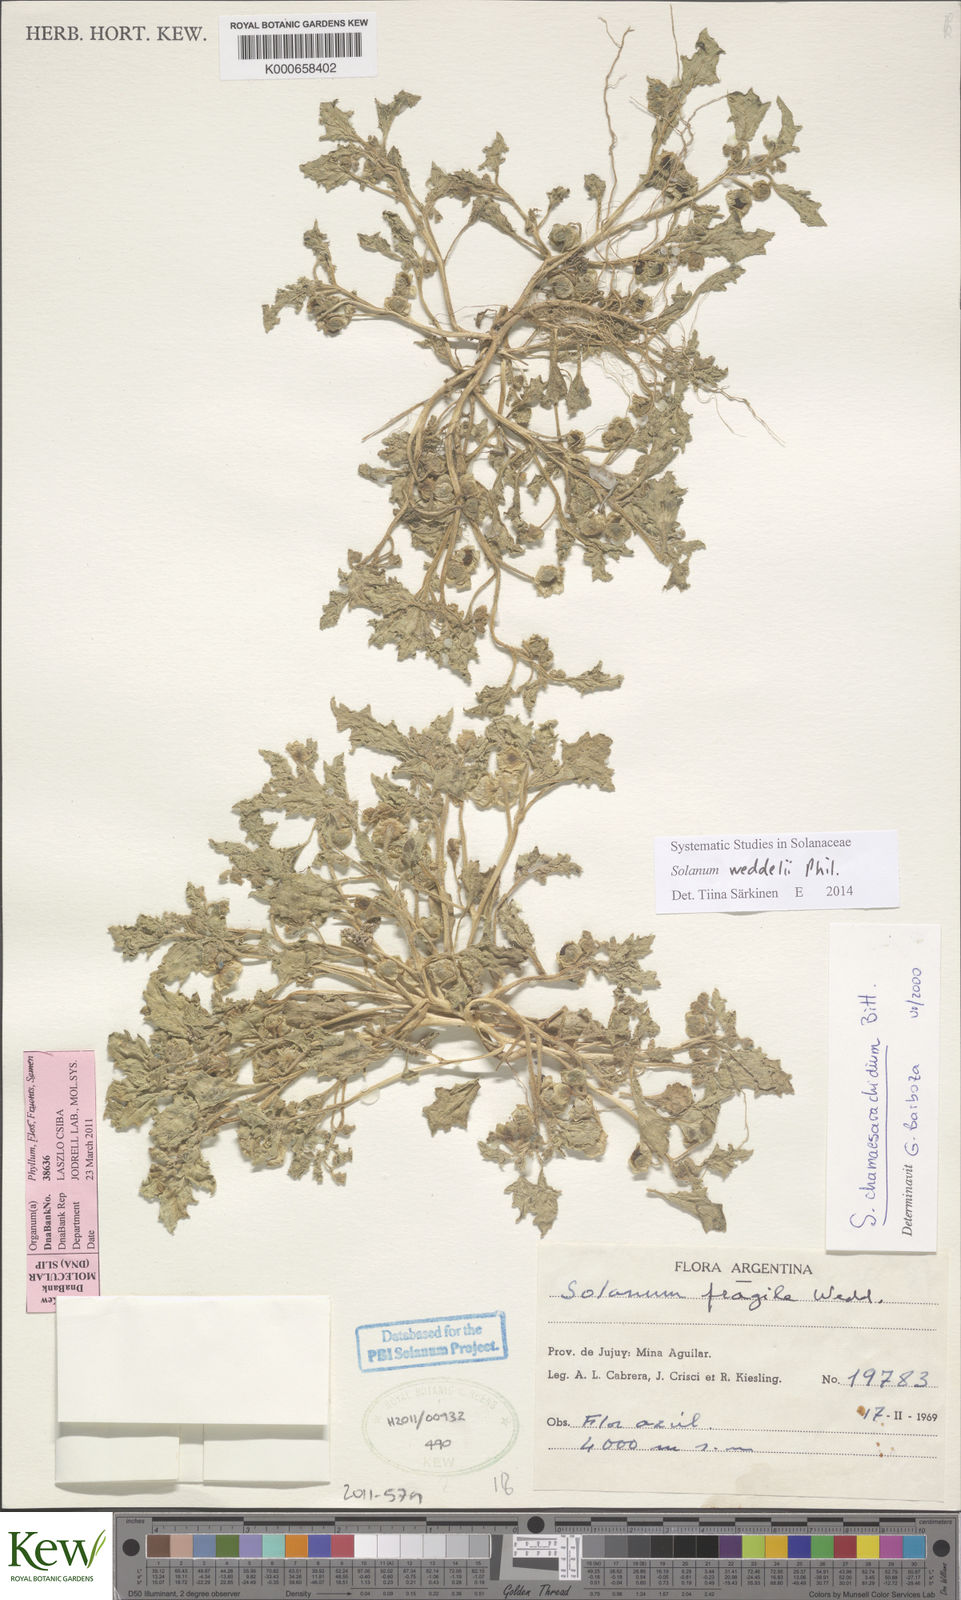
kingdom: Plantae
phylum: Tracheophyta
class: Magnoliopsida
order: Solanales
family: Solanaceae
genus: Solanum
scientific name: Solanum weddellii
